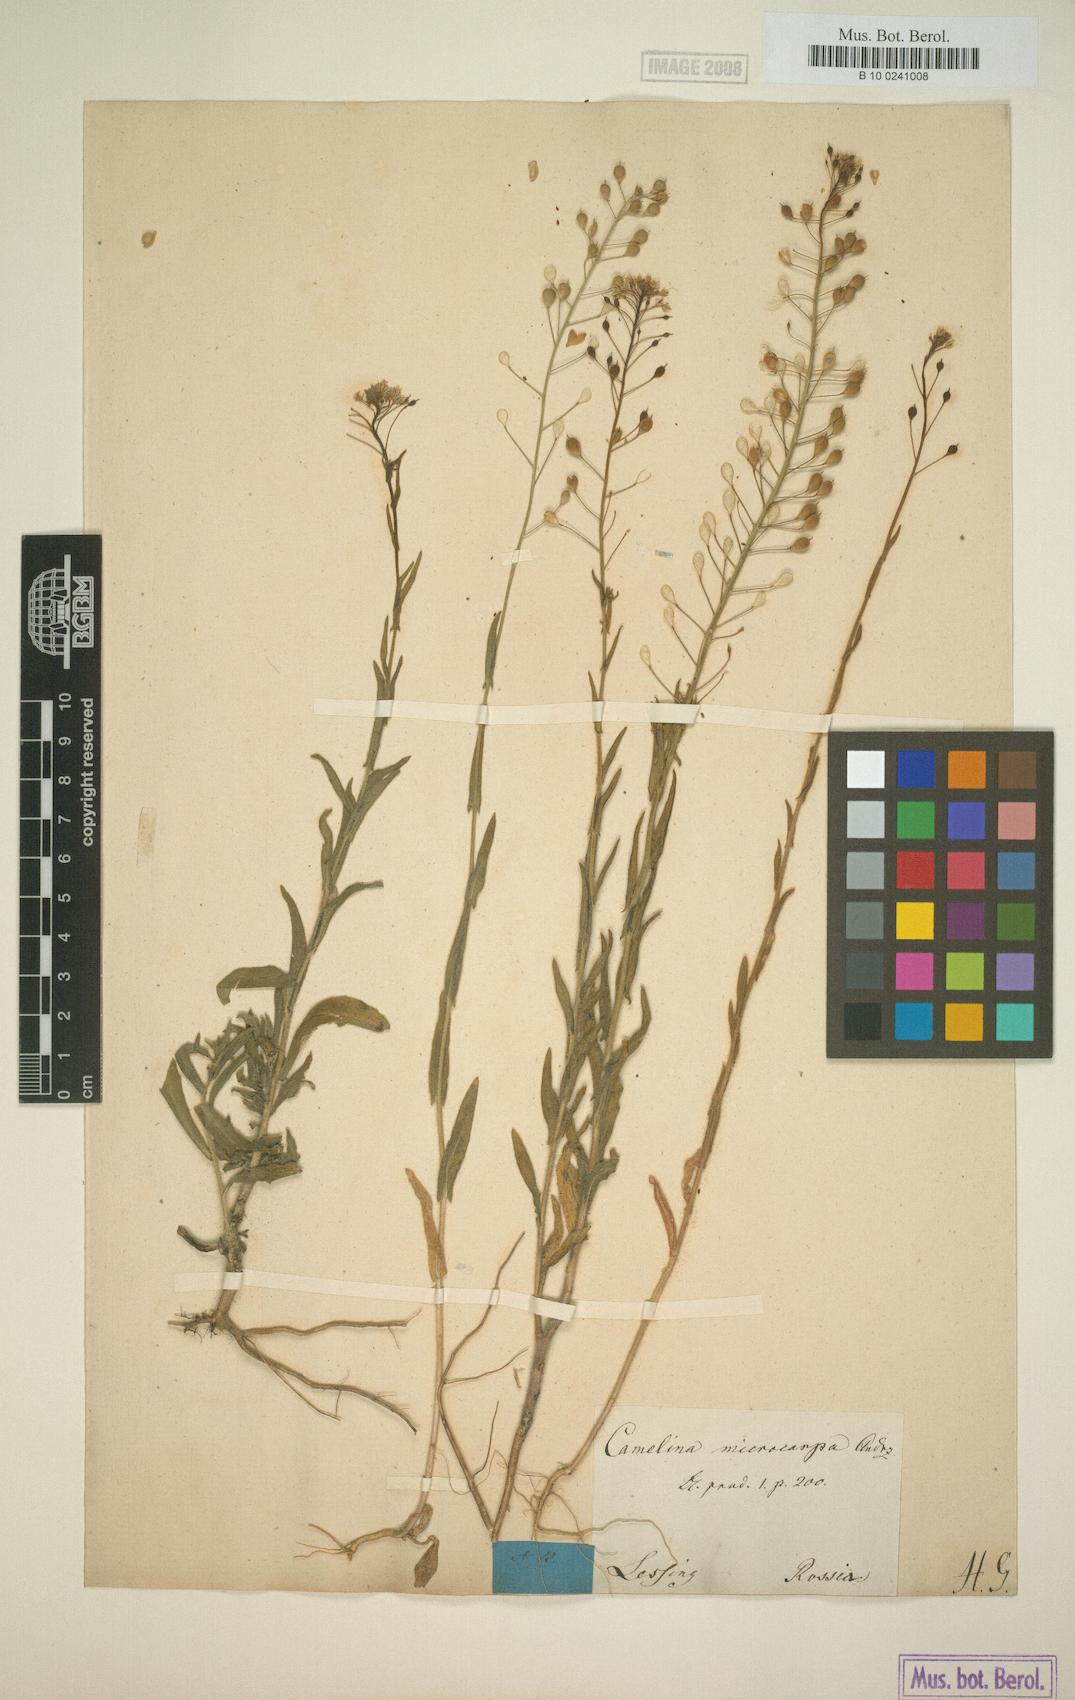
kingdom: Plantae
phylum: Tracheophyta
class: Magnoliopsida
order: Brassicales
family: Brassicaceae
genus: Camelina
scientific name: Camelina microcarpa
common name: Lesser gold-of-pleasure
